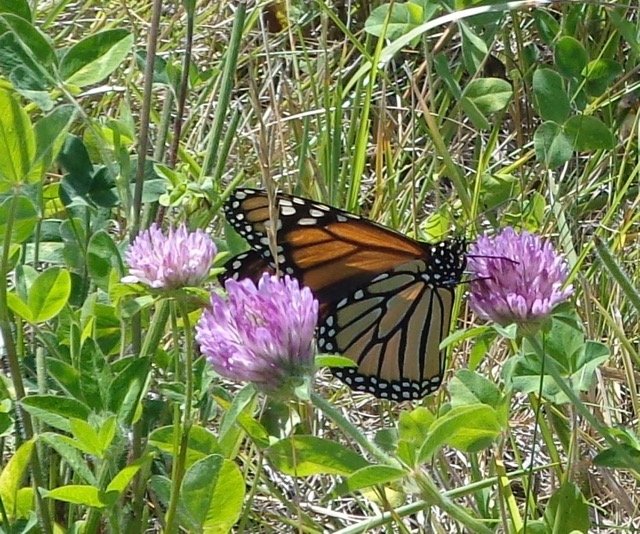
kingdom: Animalia
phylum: Arthropoda
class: Insecta
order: Lepidoptera
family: Nymphalidae
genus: Danaus
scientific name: Danaus plexippus
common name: Monarch
